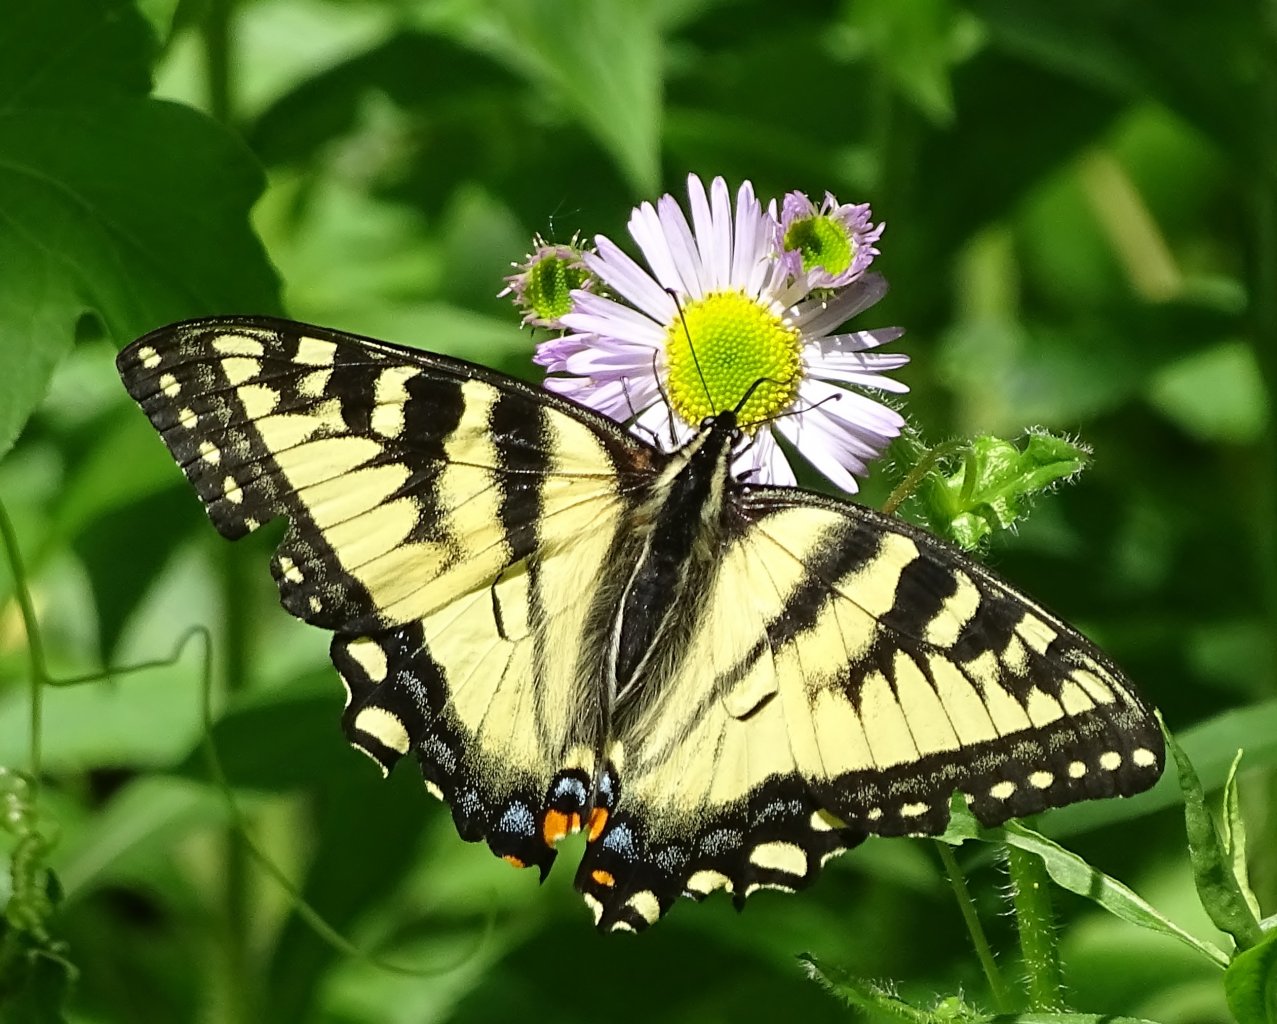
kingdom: Animalia
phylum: Arthropoda
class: Insecta
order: Lepidoptera
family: Papilionidae
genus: Pterourus
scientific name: Pterourus canadensis
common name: Canadian Tiger Swallowtail
